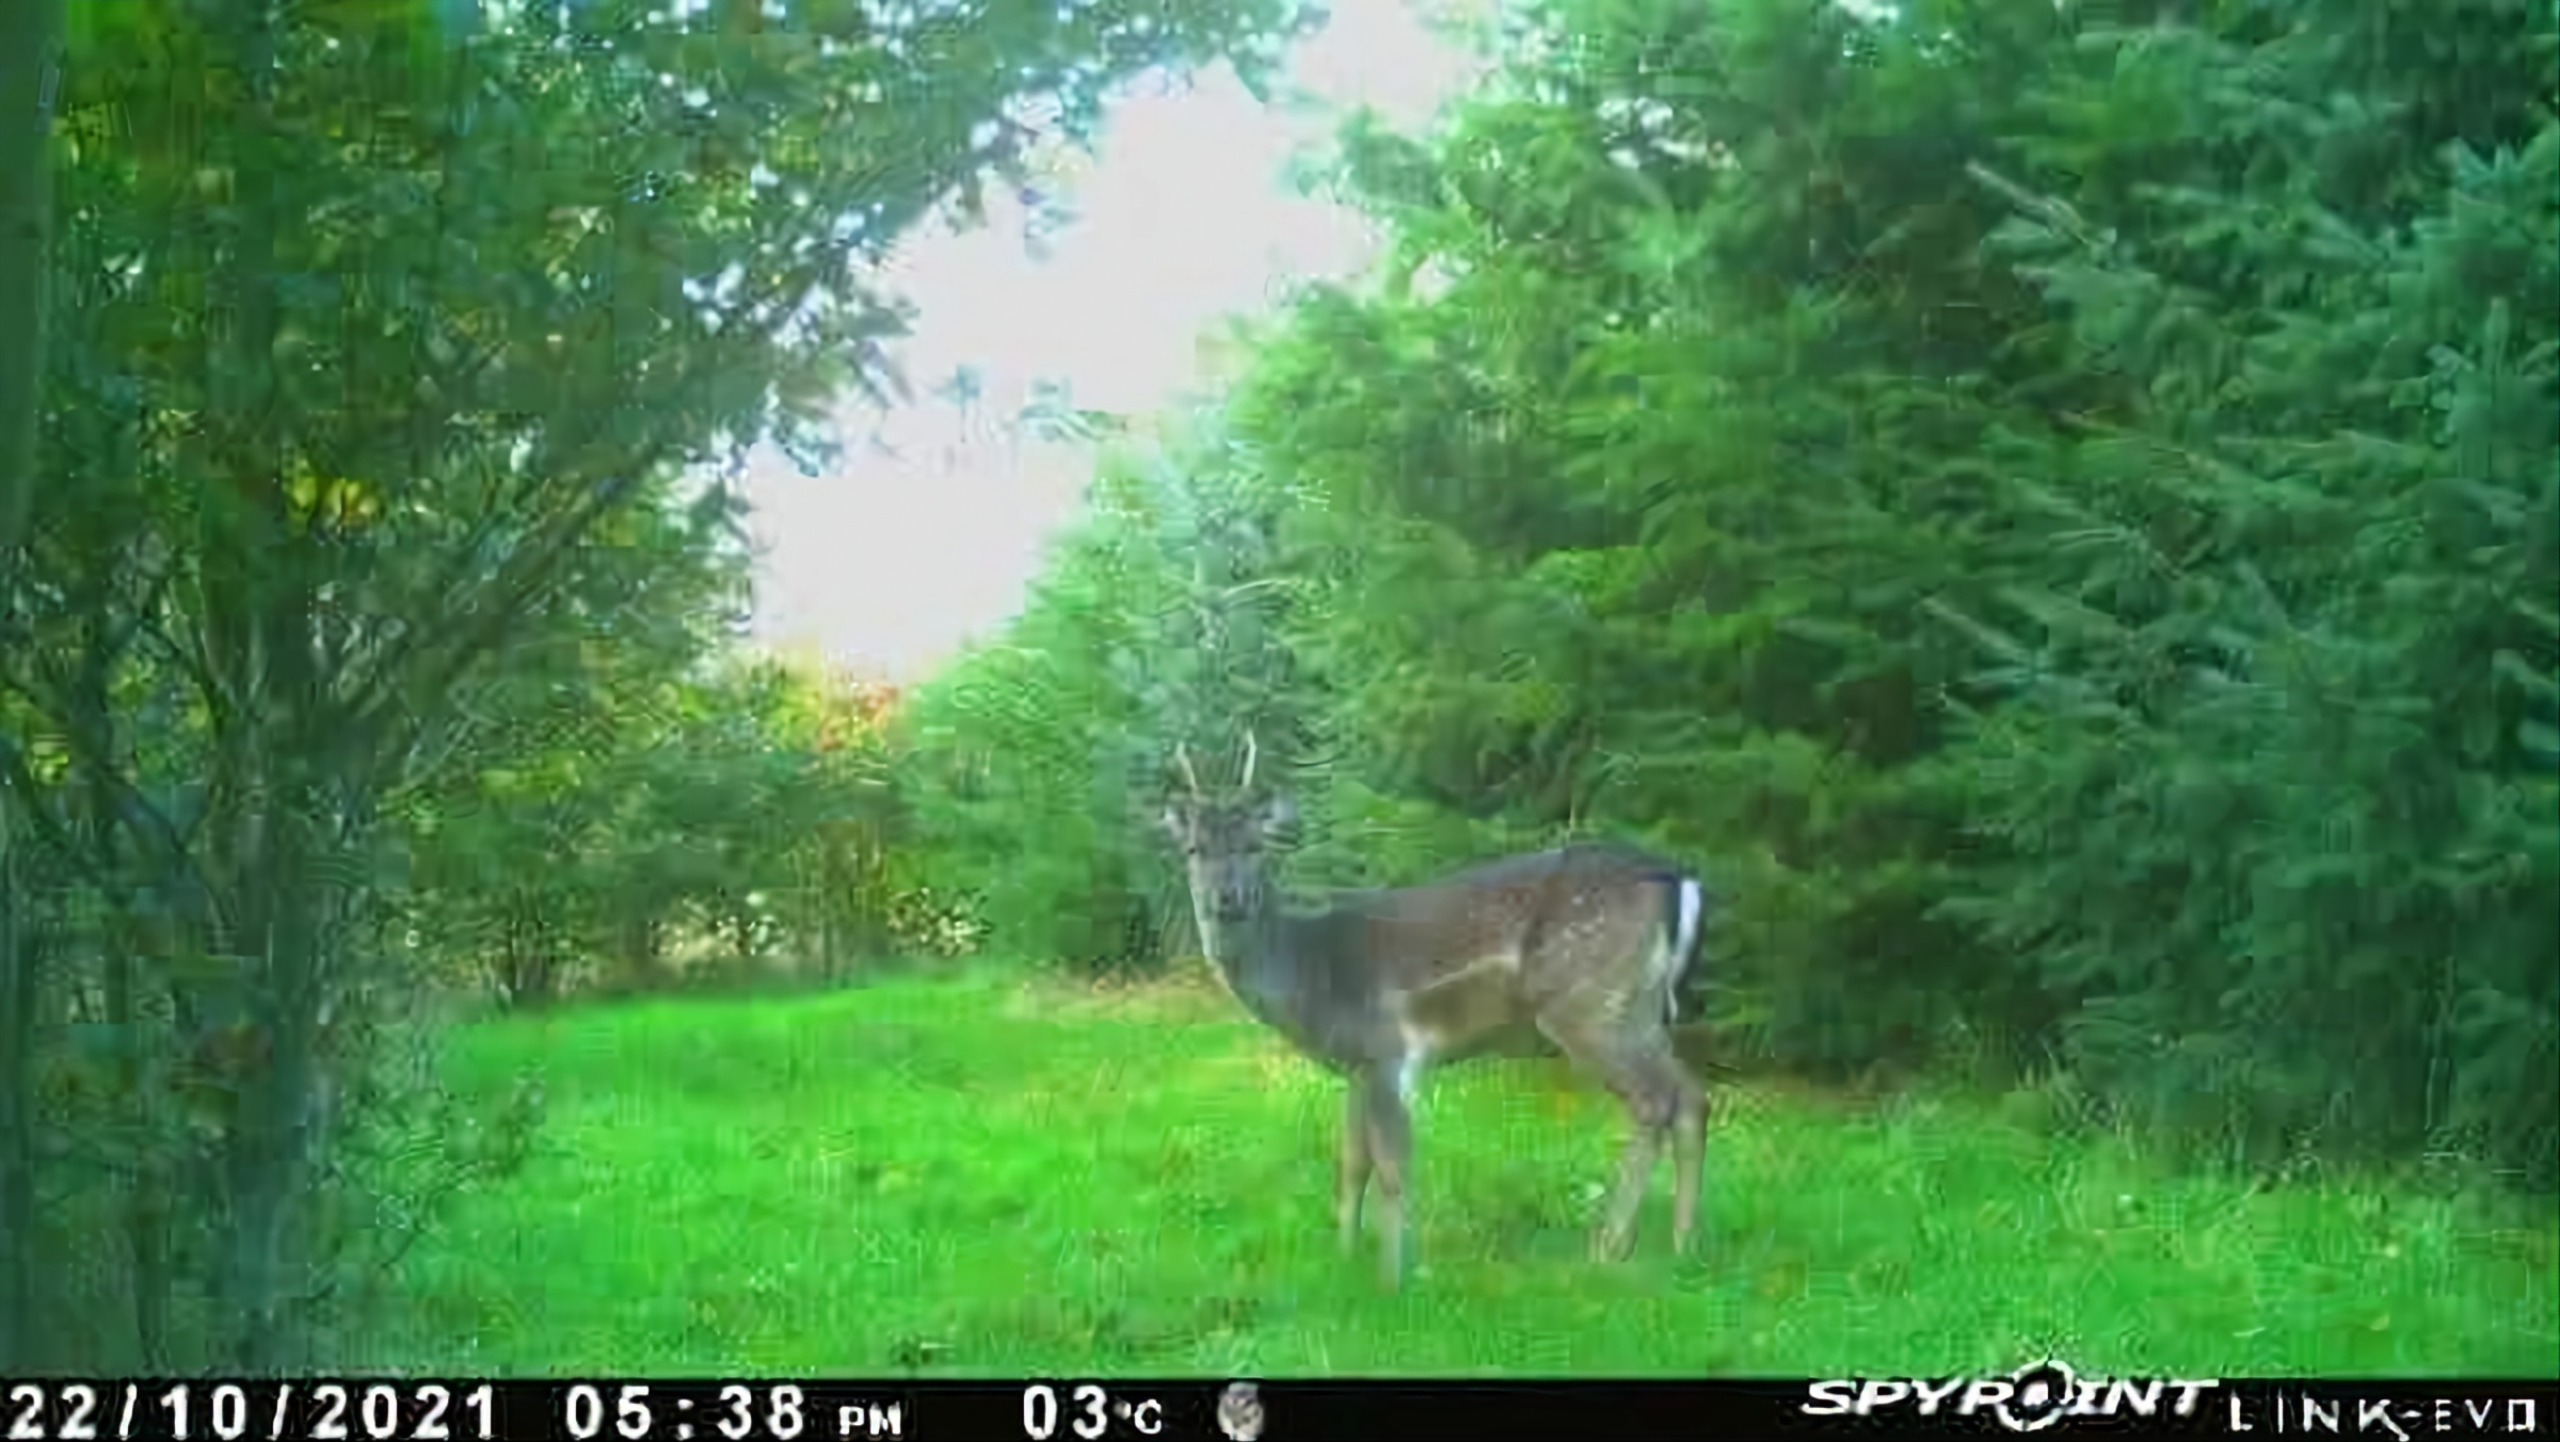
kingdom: Animalia
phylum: Chordata
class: Mammalia
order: Artiodactyla
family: Cervidae
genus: Dama
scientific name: Dama dama
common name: Dådyr
